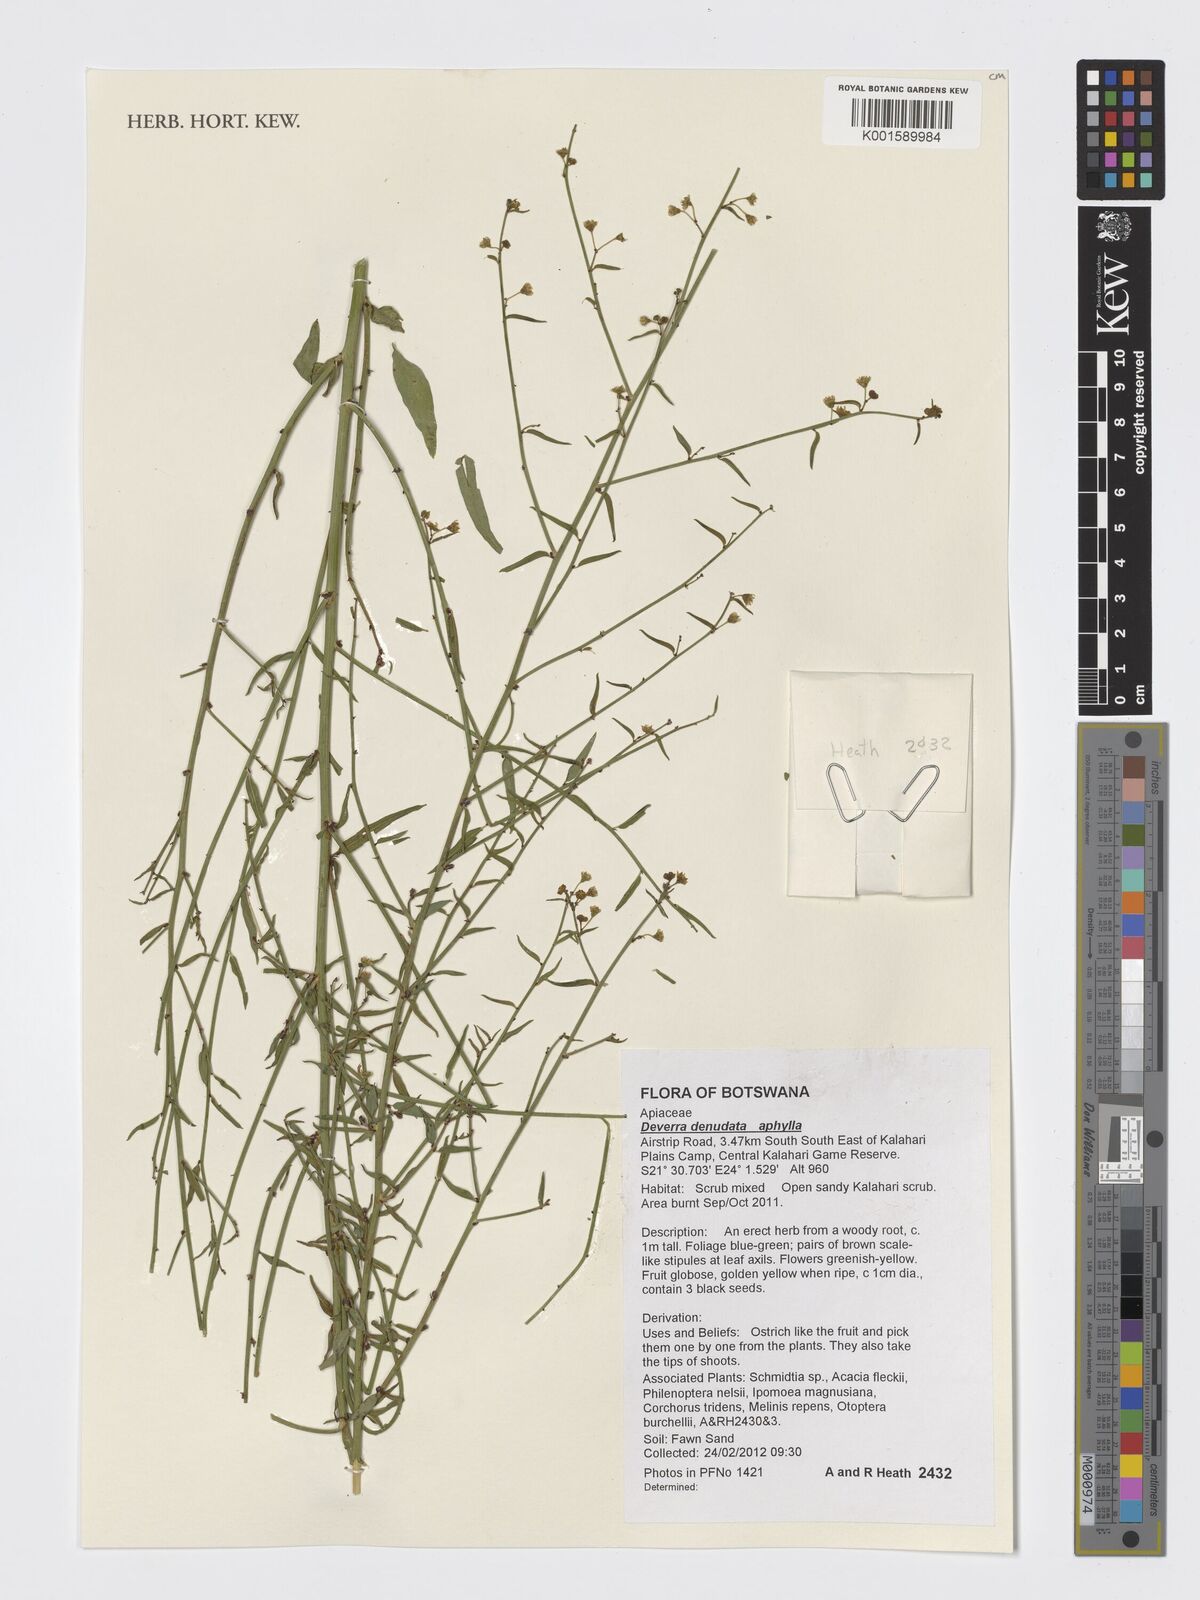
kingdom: Plantae
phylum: Tracheophyta
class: Magnoliopsida
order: Apiales
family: Apiaceae
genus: Deverra
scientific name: Deverra denudata
